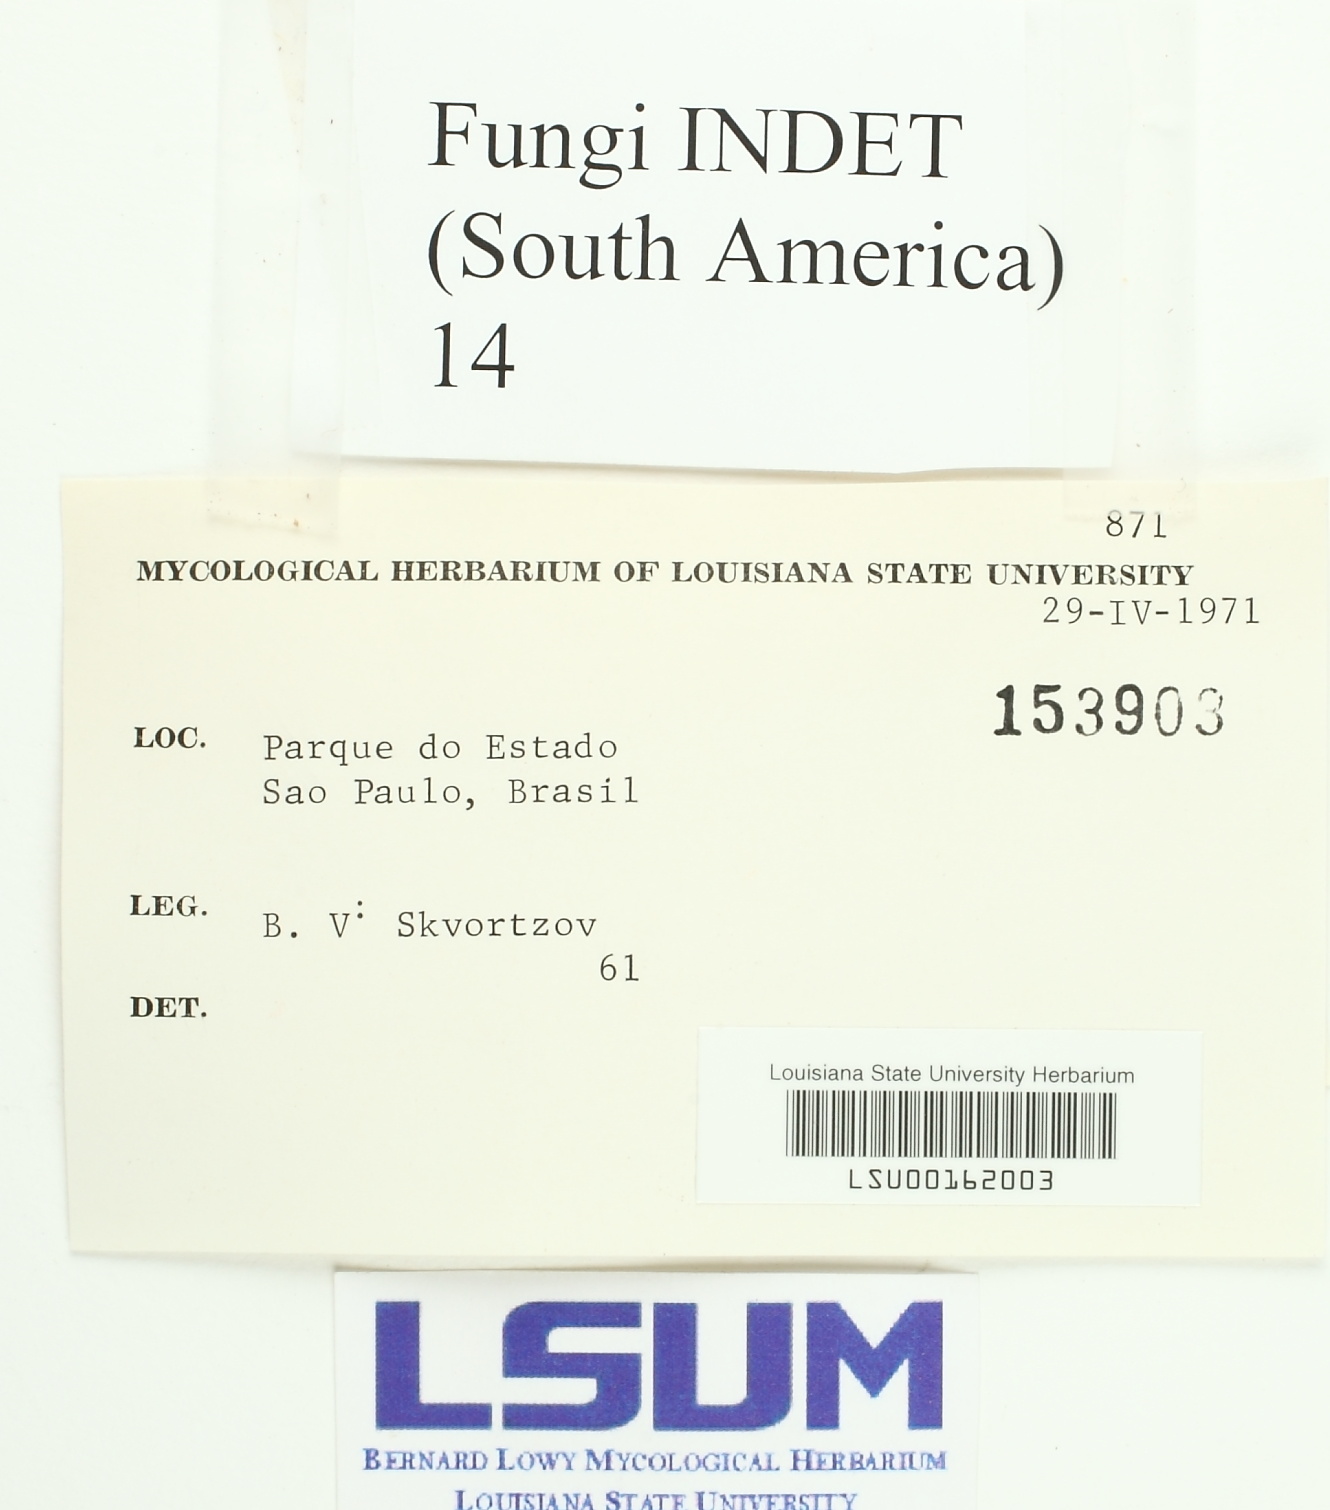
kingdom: Fungi
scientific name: Fungi
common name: Fungi
